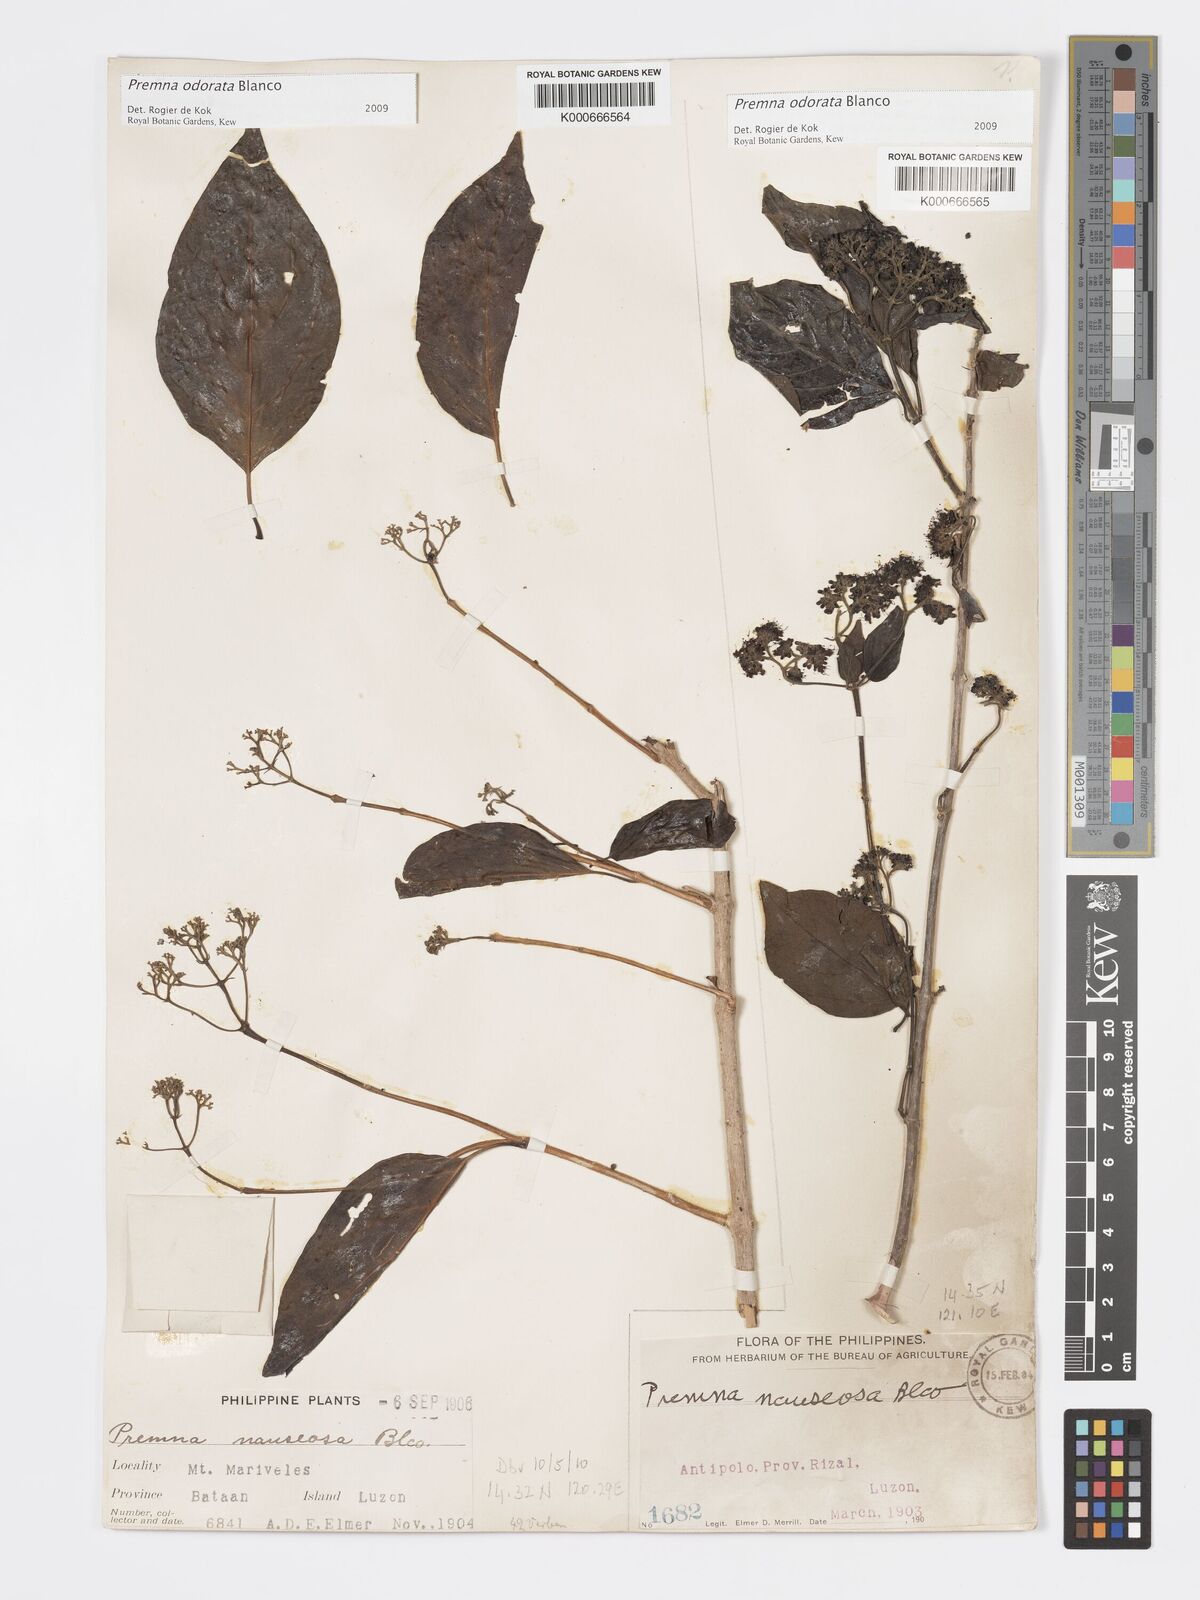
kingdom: Plantae
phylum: Tracheophyta
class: Magnoliopsida
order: Lamiales
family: Lamiaceae
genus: Premna
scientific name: Premna odorata
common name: Fragrant premna
